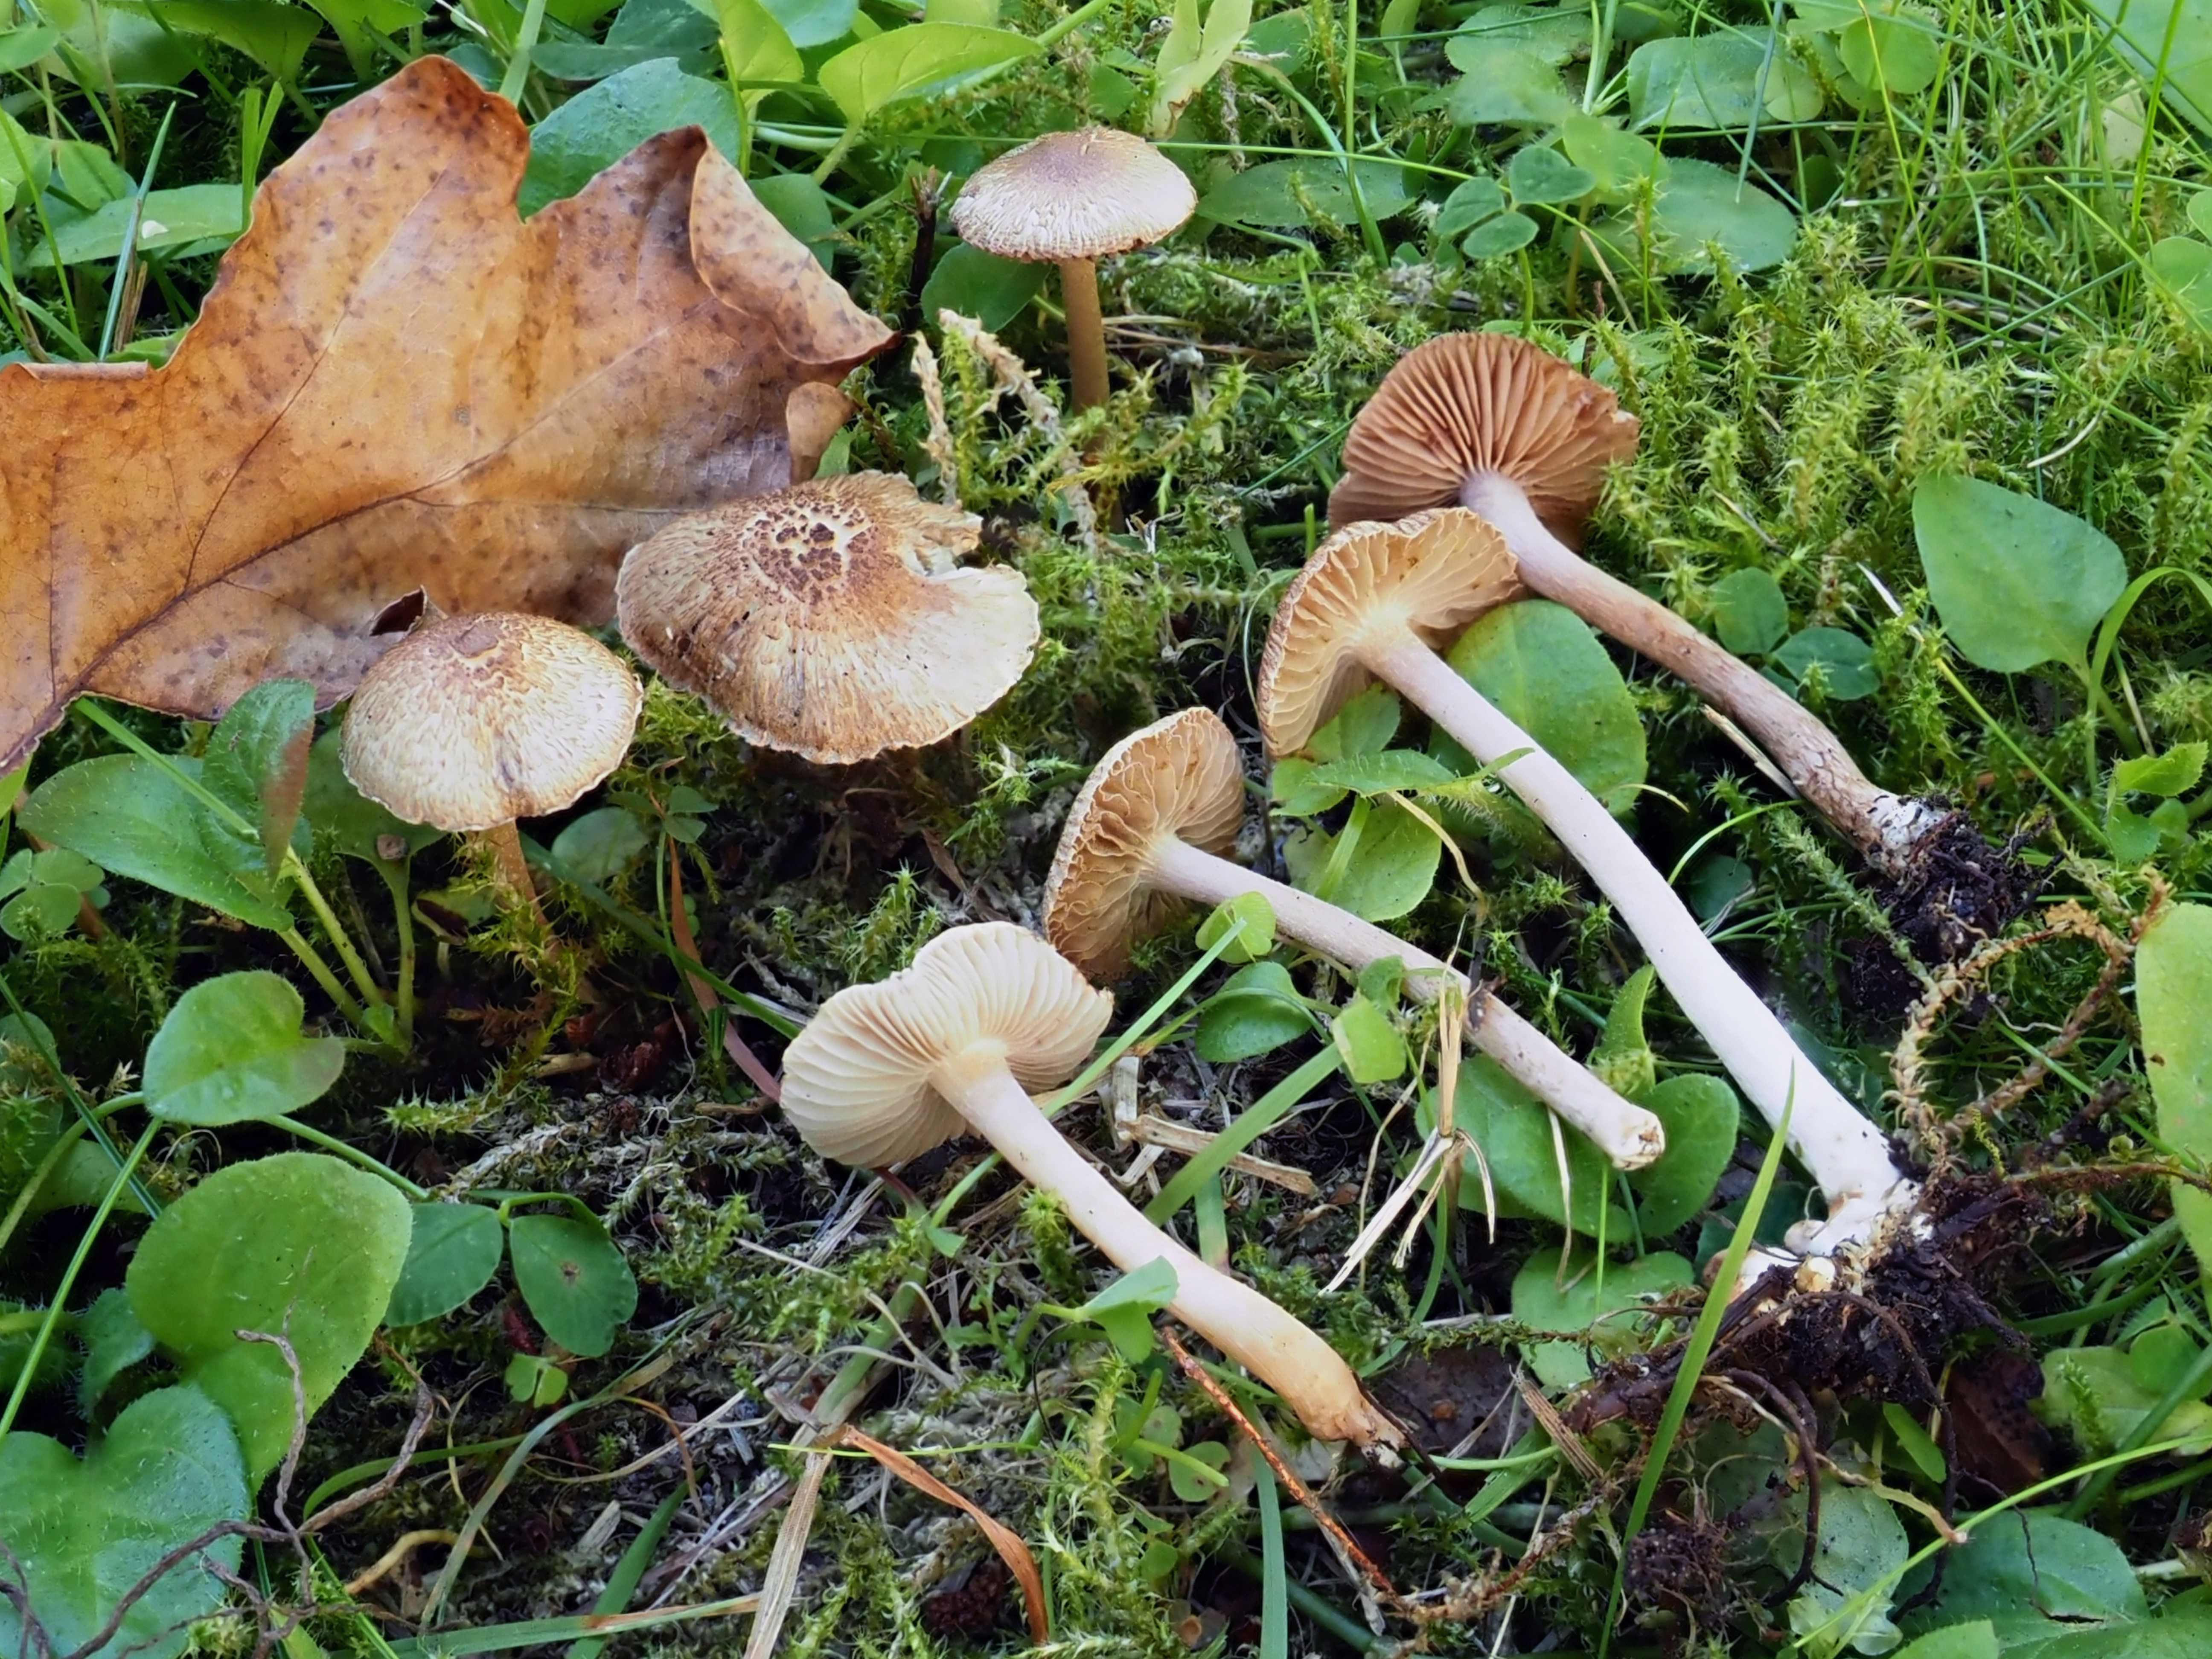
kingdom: Fungi
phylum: Basidiomycota
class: Agaricomycetes
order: Agaricales
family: Inocybaceae
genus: Inocybe
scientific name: Inocybe cincinnata
